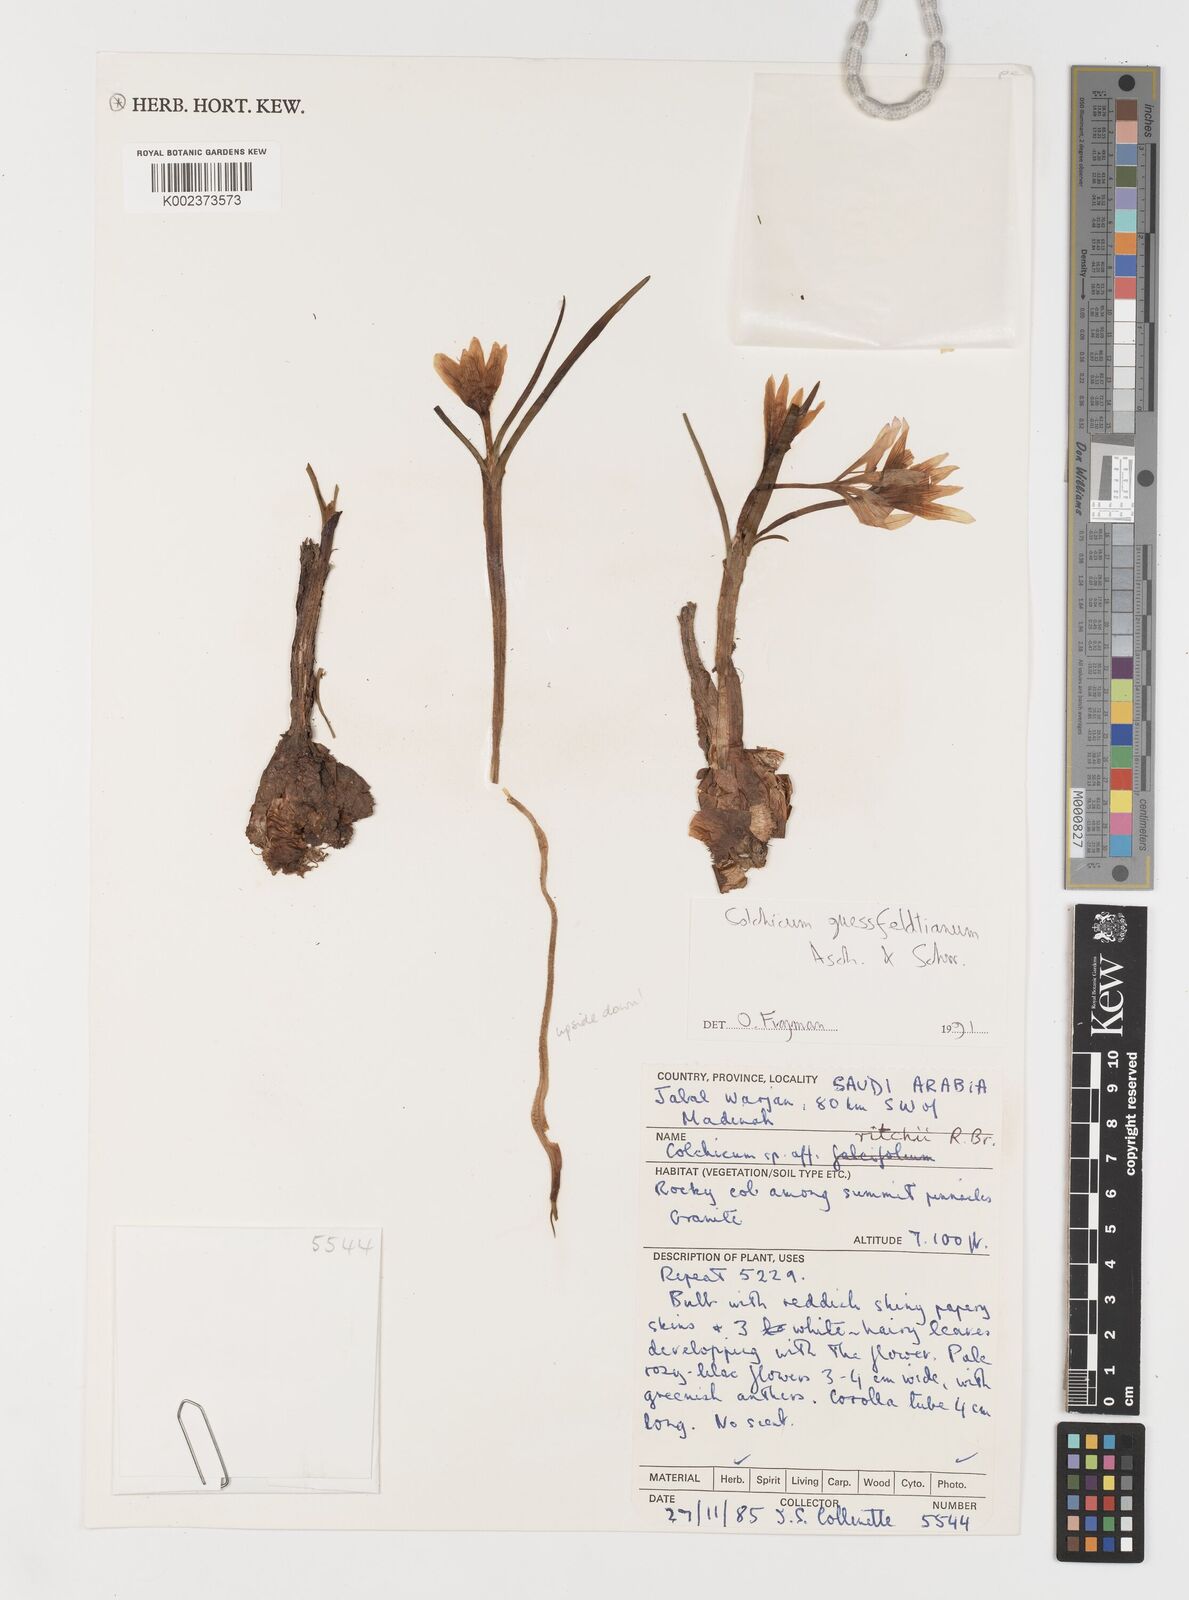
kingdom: Plantae
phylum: Tracheophyta
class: Liliopsida
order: Liliales
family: Colchicaceae
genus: Colchicum
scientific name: Colchicum ritchii
